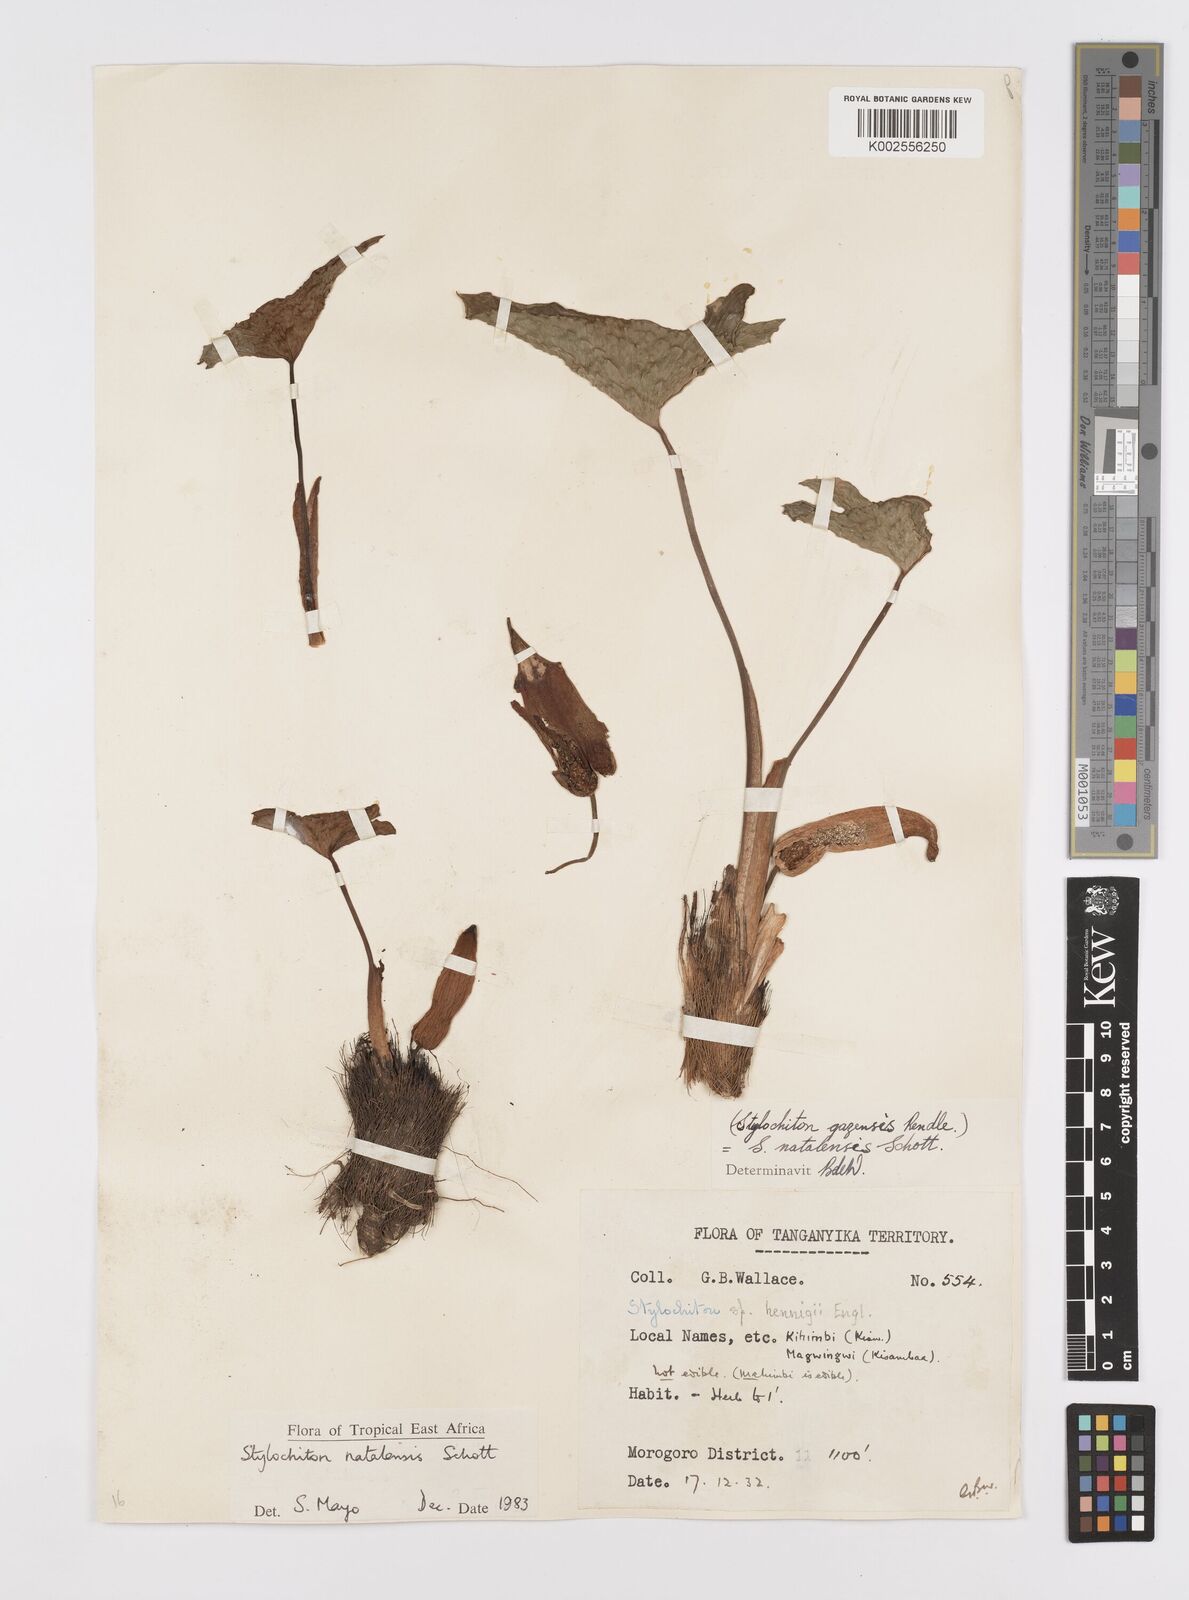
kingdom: Plantae
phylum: Tracheophyta
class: Liliopsida
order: Alismatales
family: Araceae
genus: Stylochaeton
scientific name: Stylochaeton natalense
